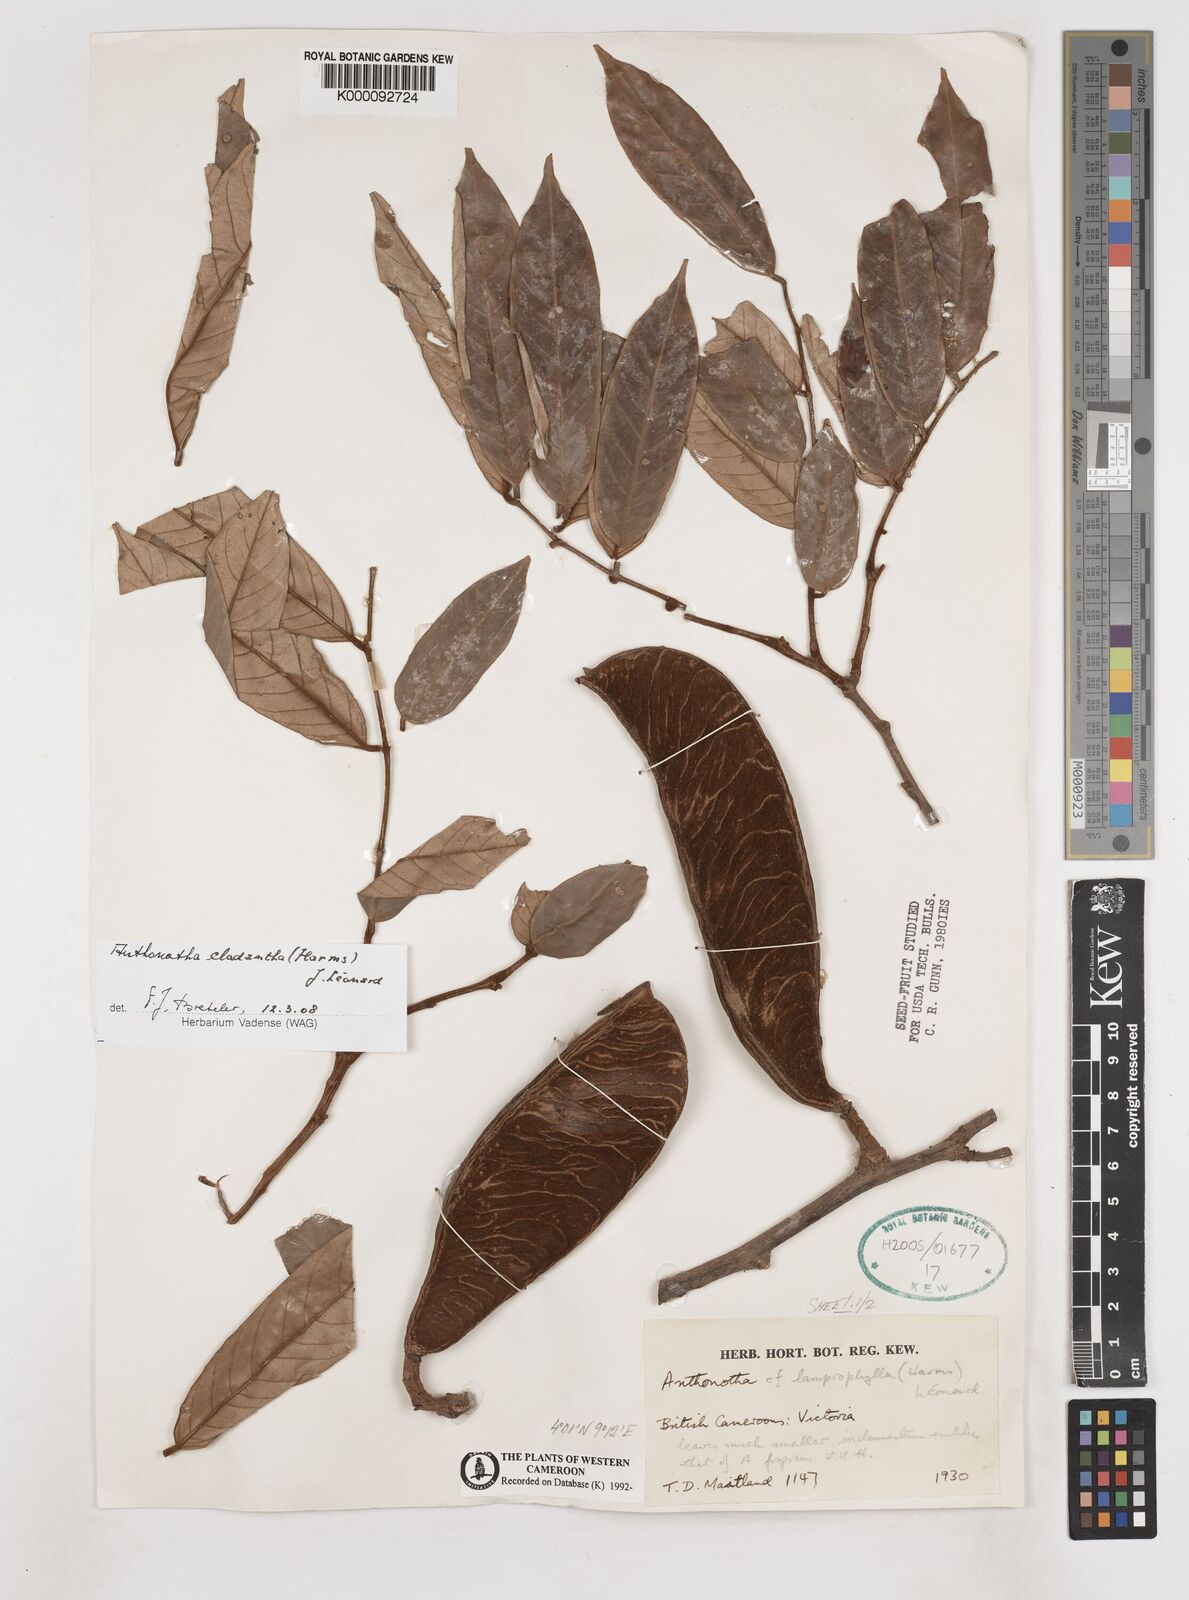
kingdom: Plantae
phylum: Tracheophyta
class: Magnoliopsida
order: Fabales
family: Fabaceae
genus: Anthonotha
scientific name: Anthonotha
